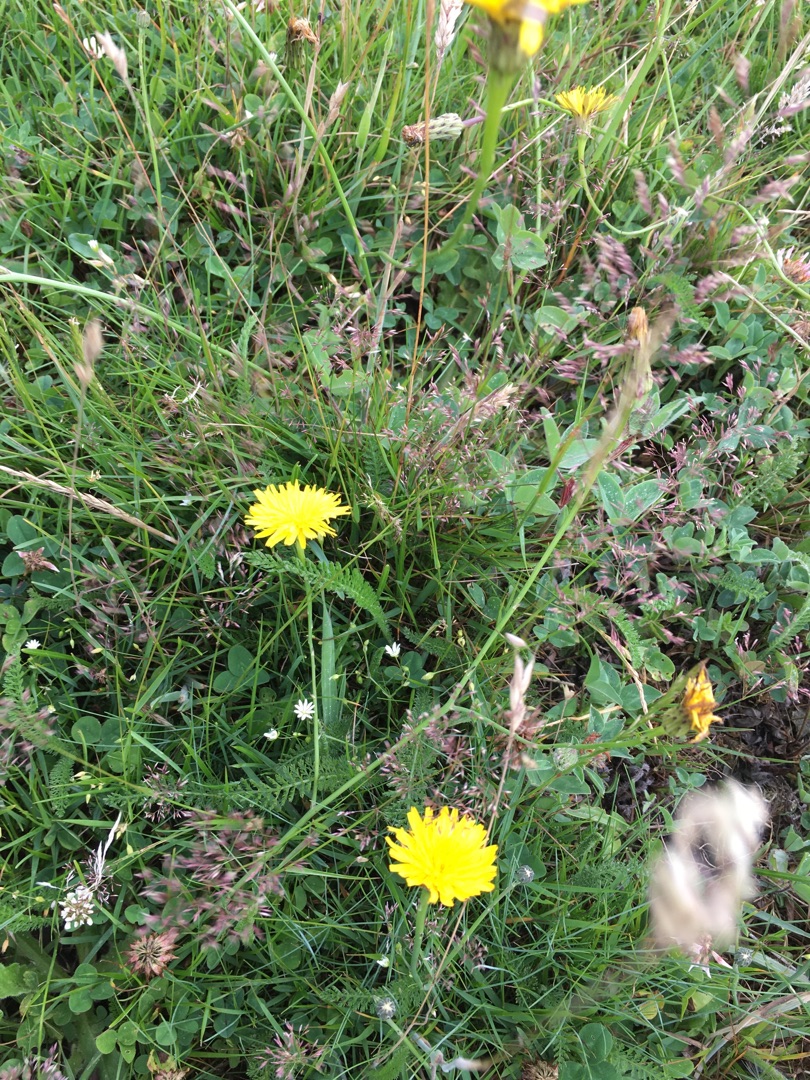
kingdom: Plantae
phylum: Tracheophyta
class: Magnoliopsida
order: Asterales
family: Asteraceae
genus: Hypochaeris
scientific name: Hypochaeris radicata
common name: Almindelig kongepen
